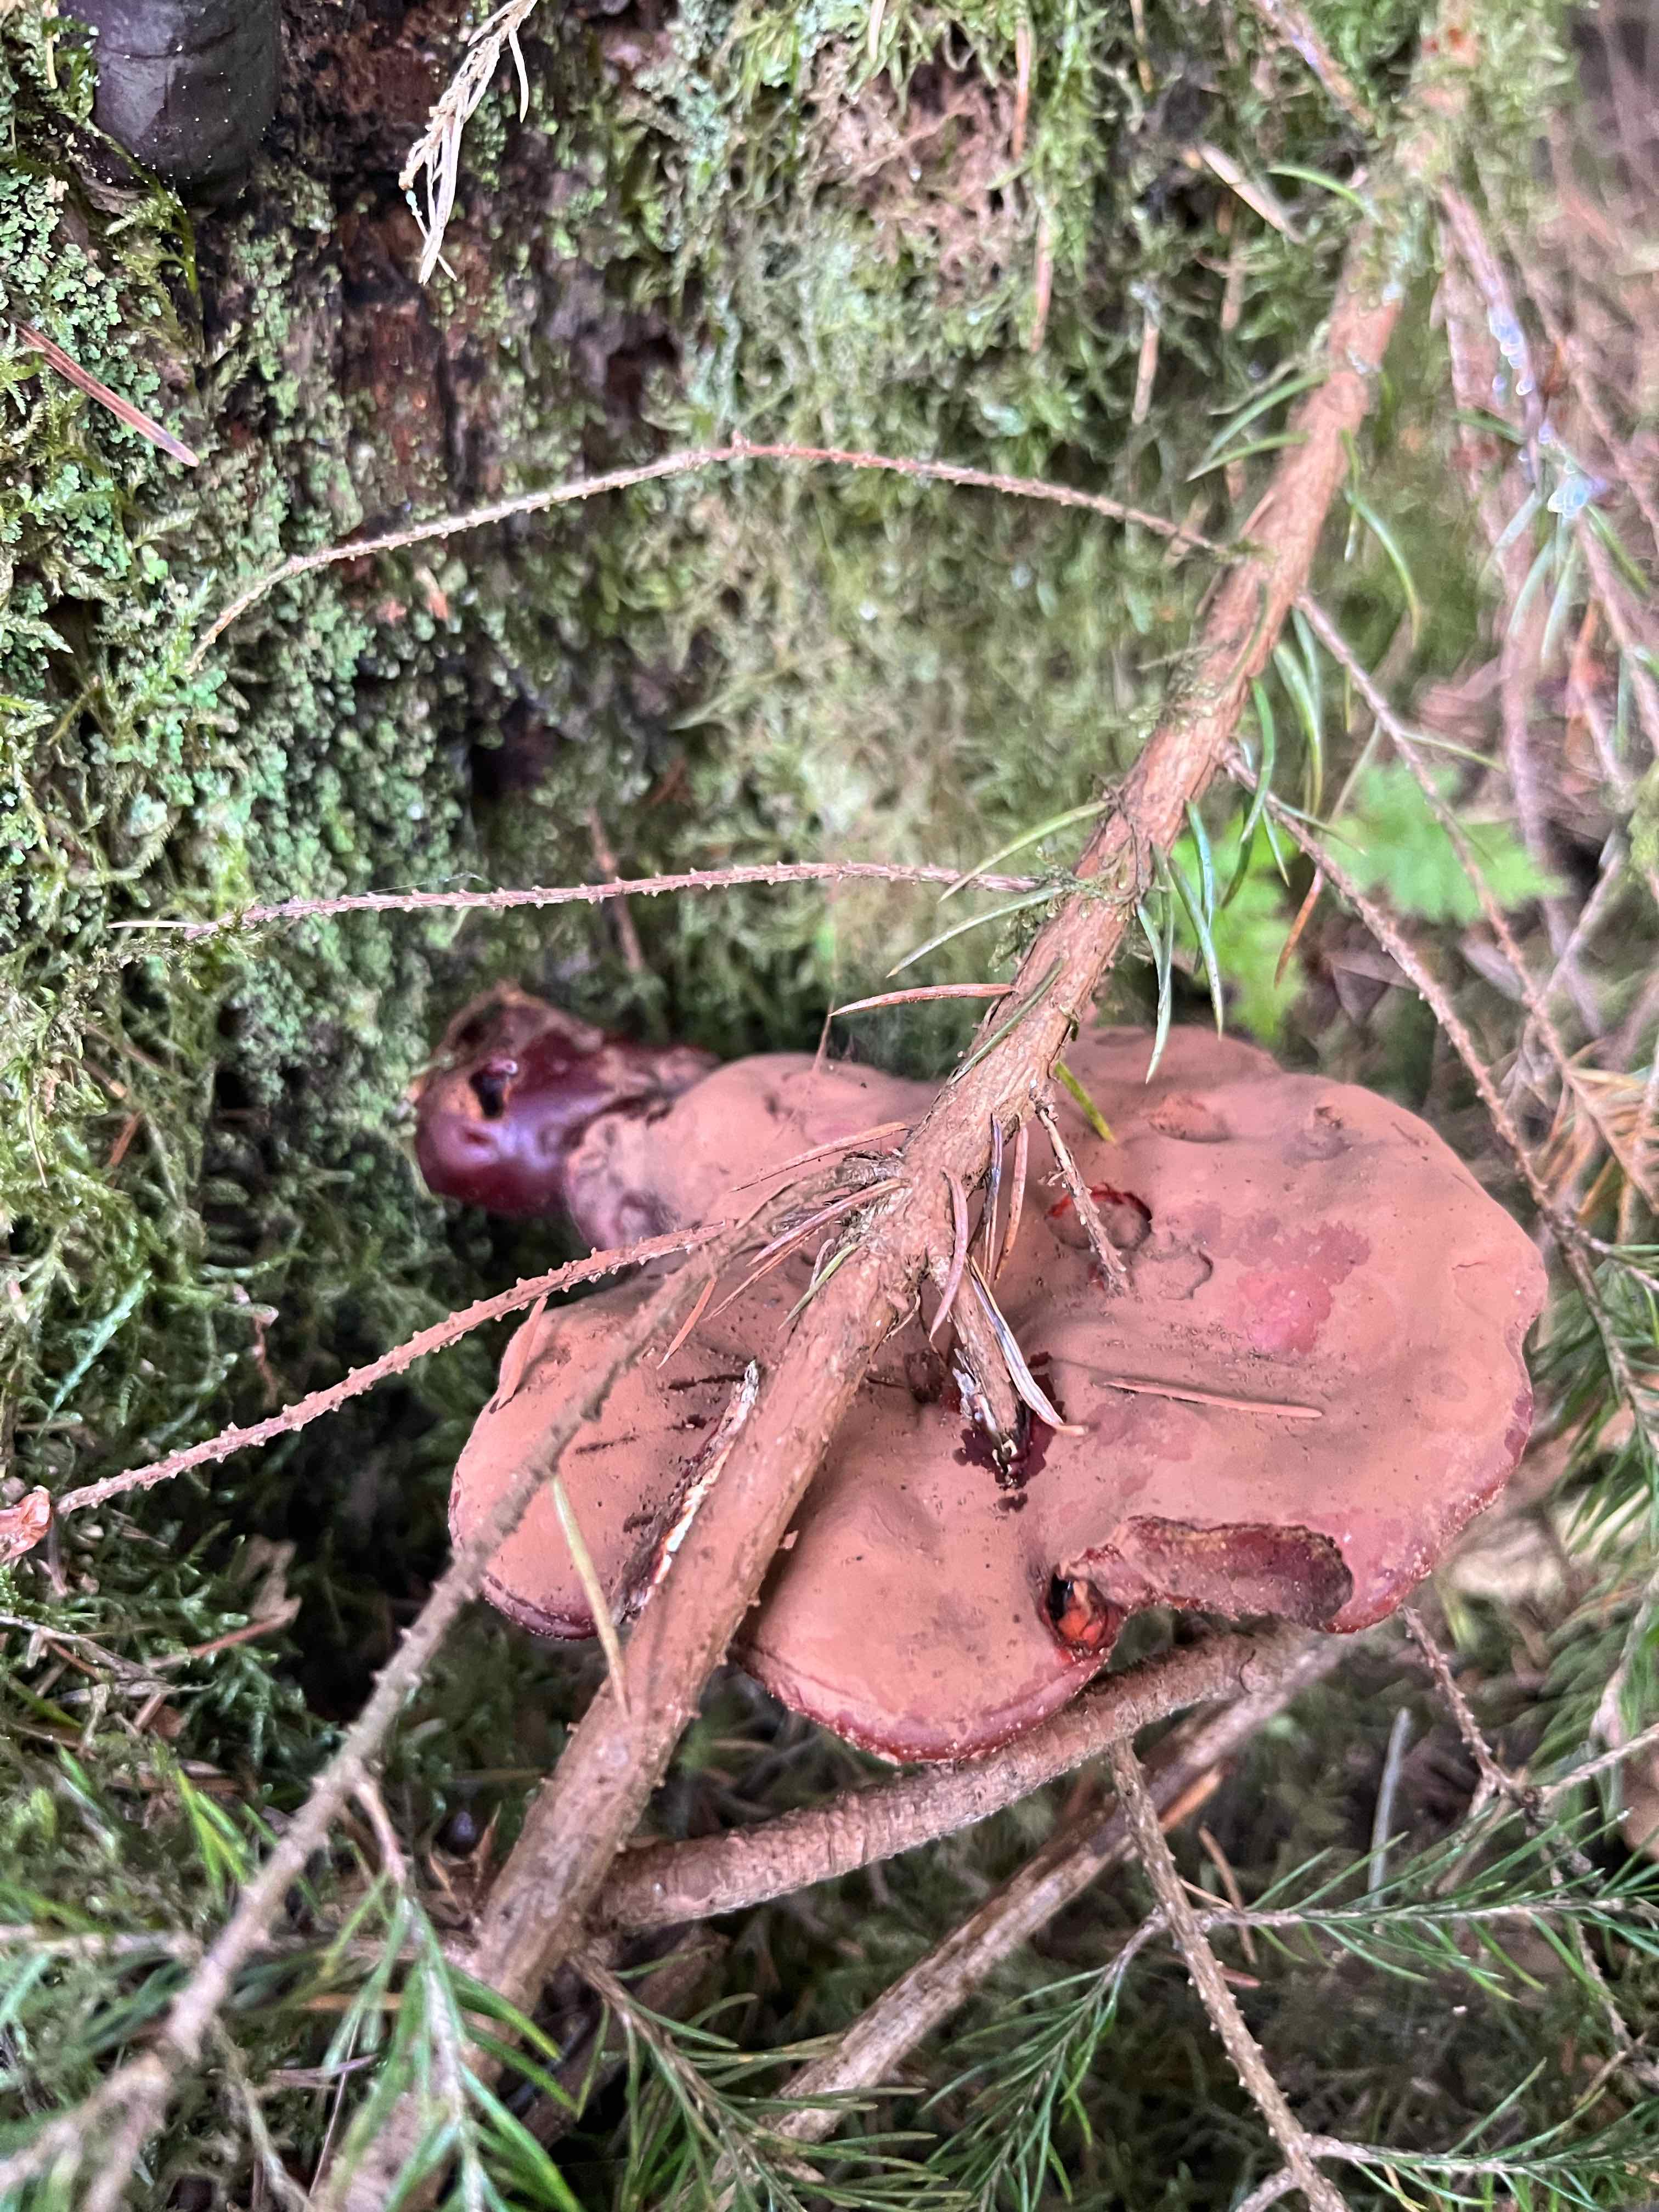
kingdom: Fungi
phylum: Basidiomycota
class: Agaricomycetes
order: Polyporales
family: Polyporaceae
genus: Ganoderma
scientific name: Ganoderma lucidum
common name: skinnende lakporesvamp
